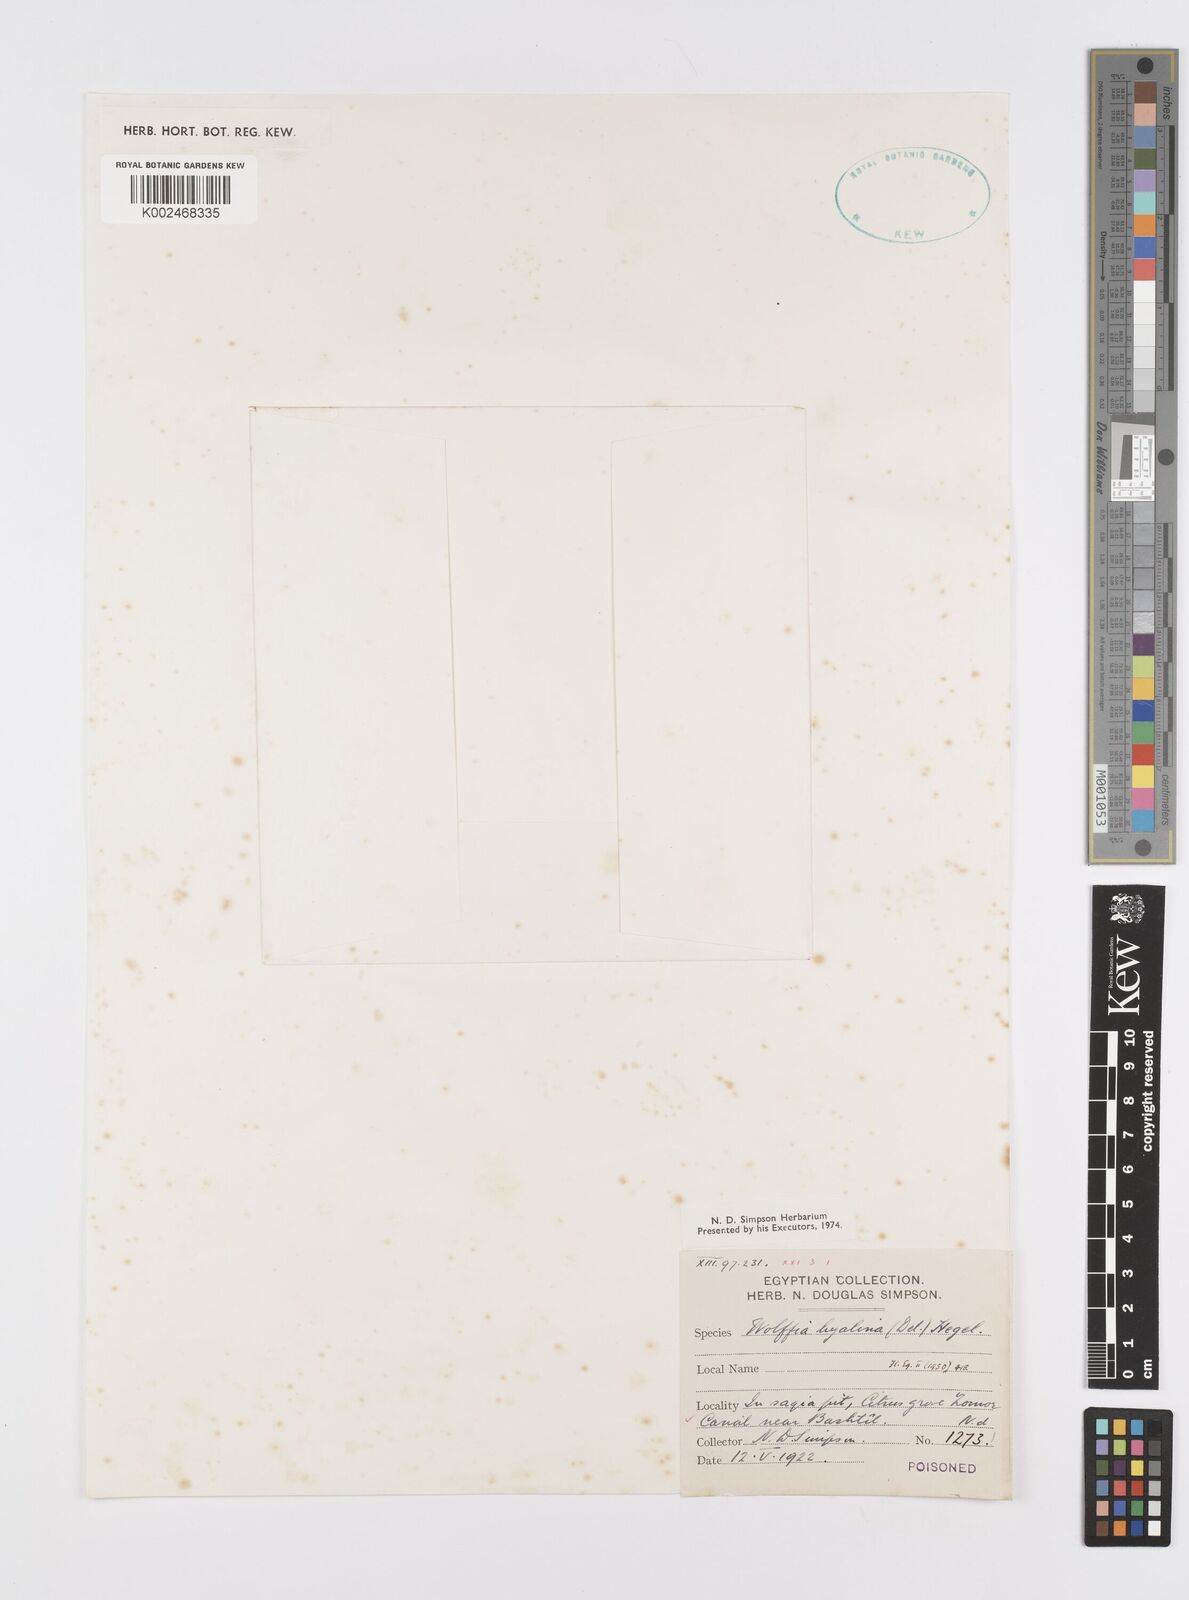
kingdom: Plantae
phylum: Tracheophyta
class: Liliopsida
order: Alismatales
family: Araceae
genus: Wolffiella
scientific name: Wolffiella
